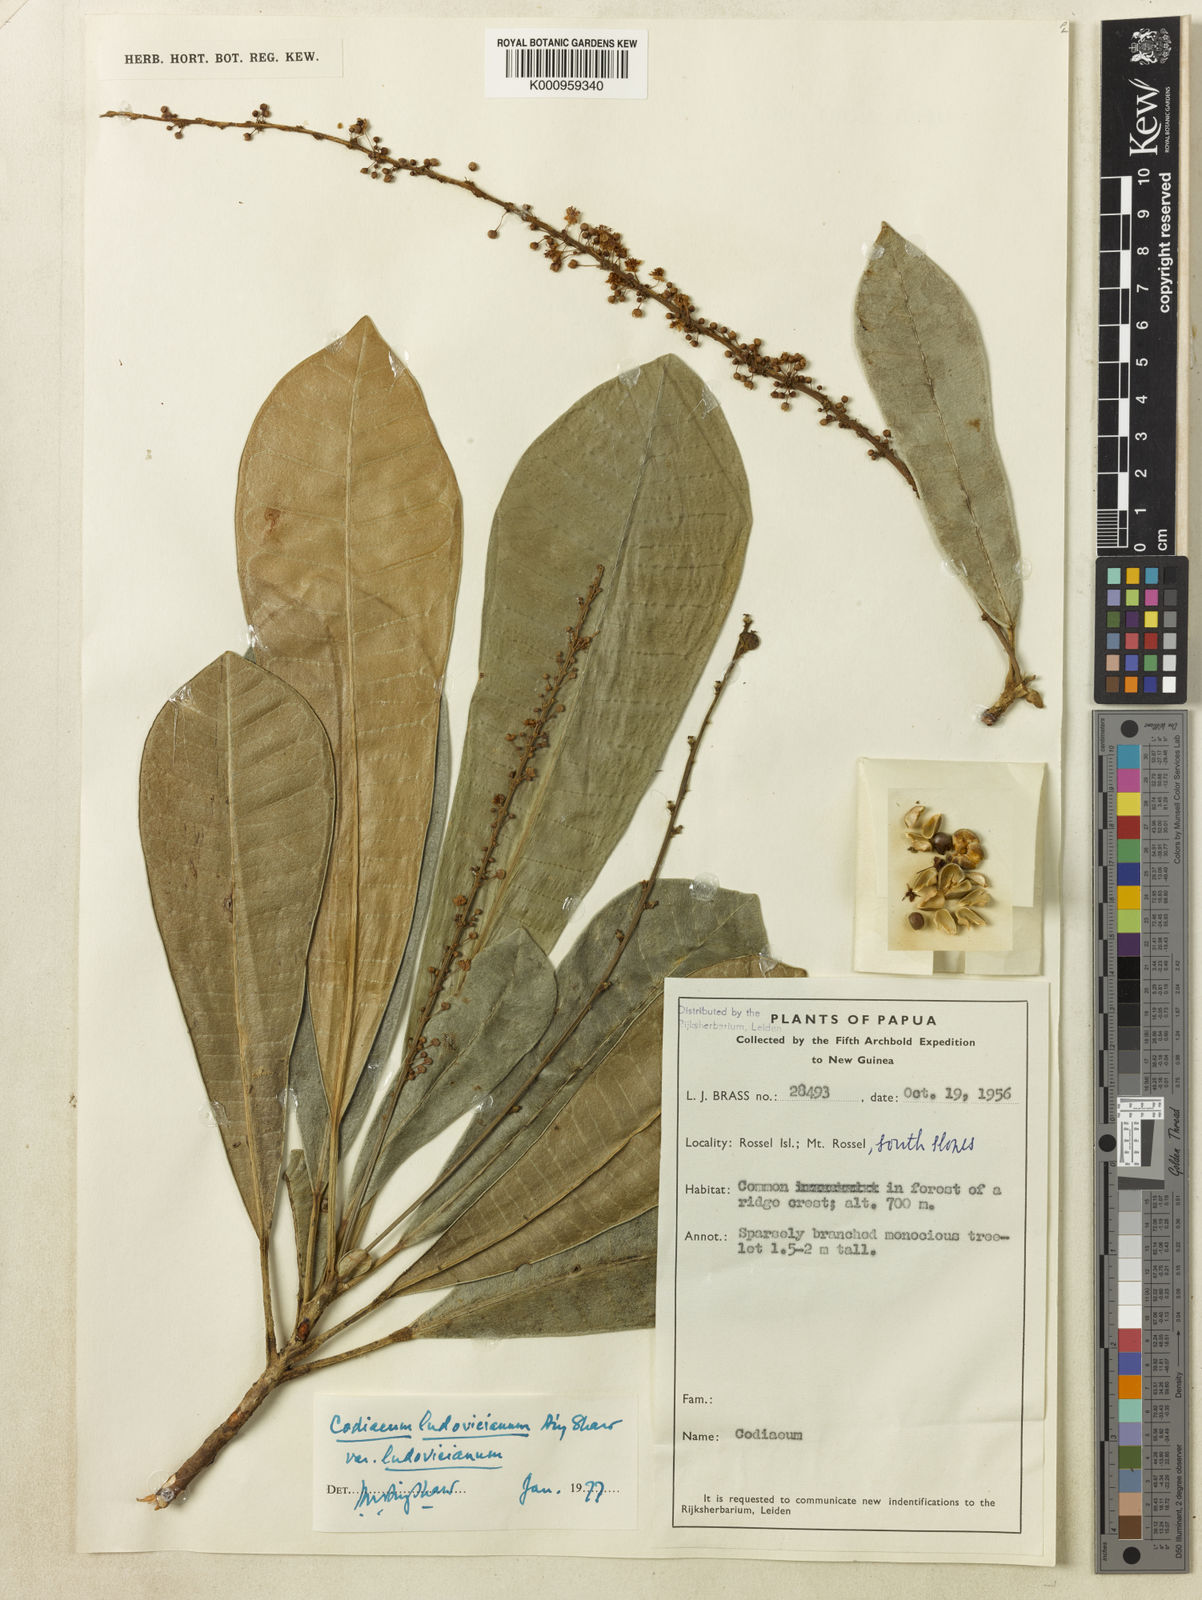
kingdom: Plantae
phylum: Tracheophyta
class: Magnoliopsida
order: Malpighiales
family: Euphorbiaceae
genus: Codiaeum
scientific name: Codiaeum ludovicianum
